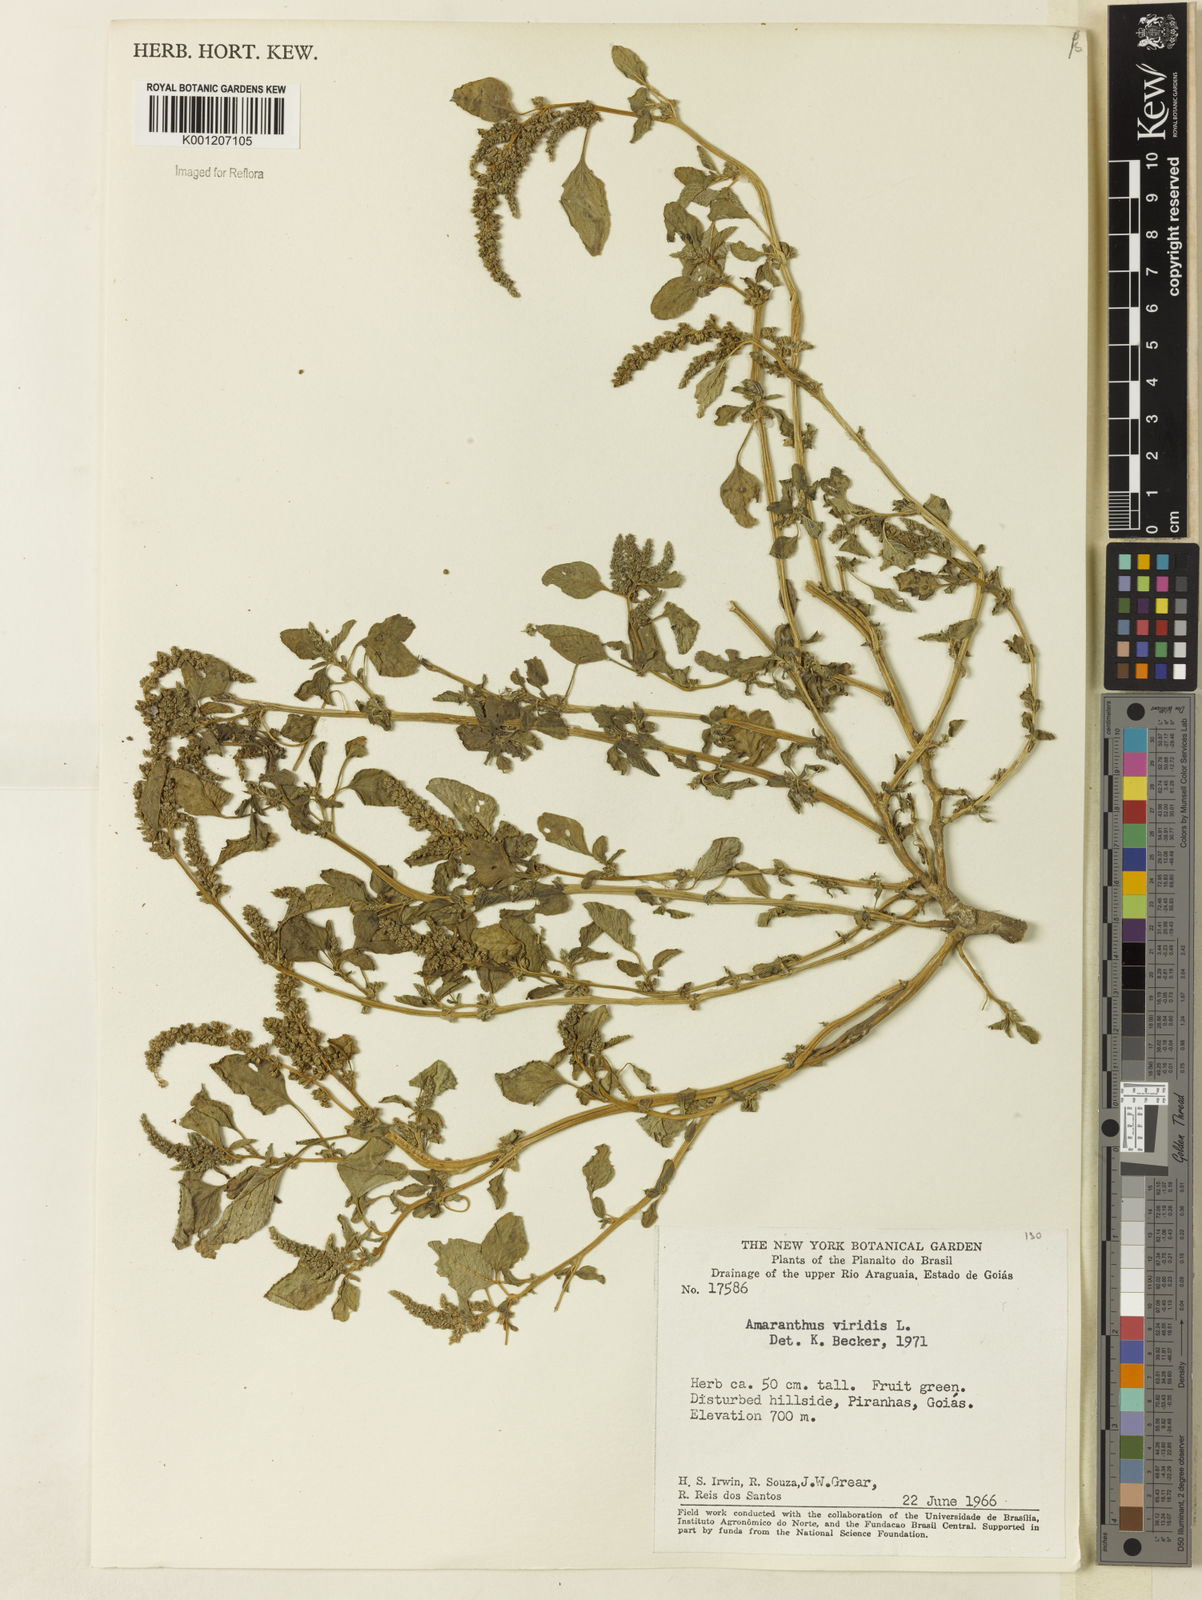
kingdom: Plantae
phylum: Tracheophyta
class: Magnoliopsida
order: Caryophyllales
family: Amaranthaceae
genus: Amaranthus
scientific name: Amaranthus viridis
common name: Slender amaranth
